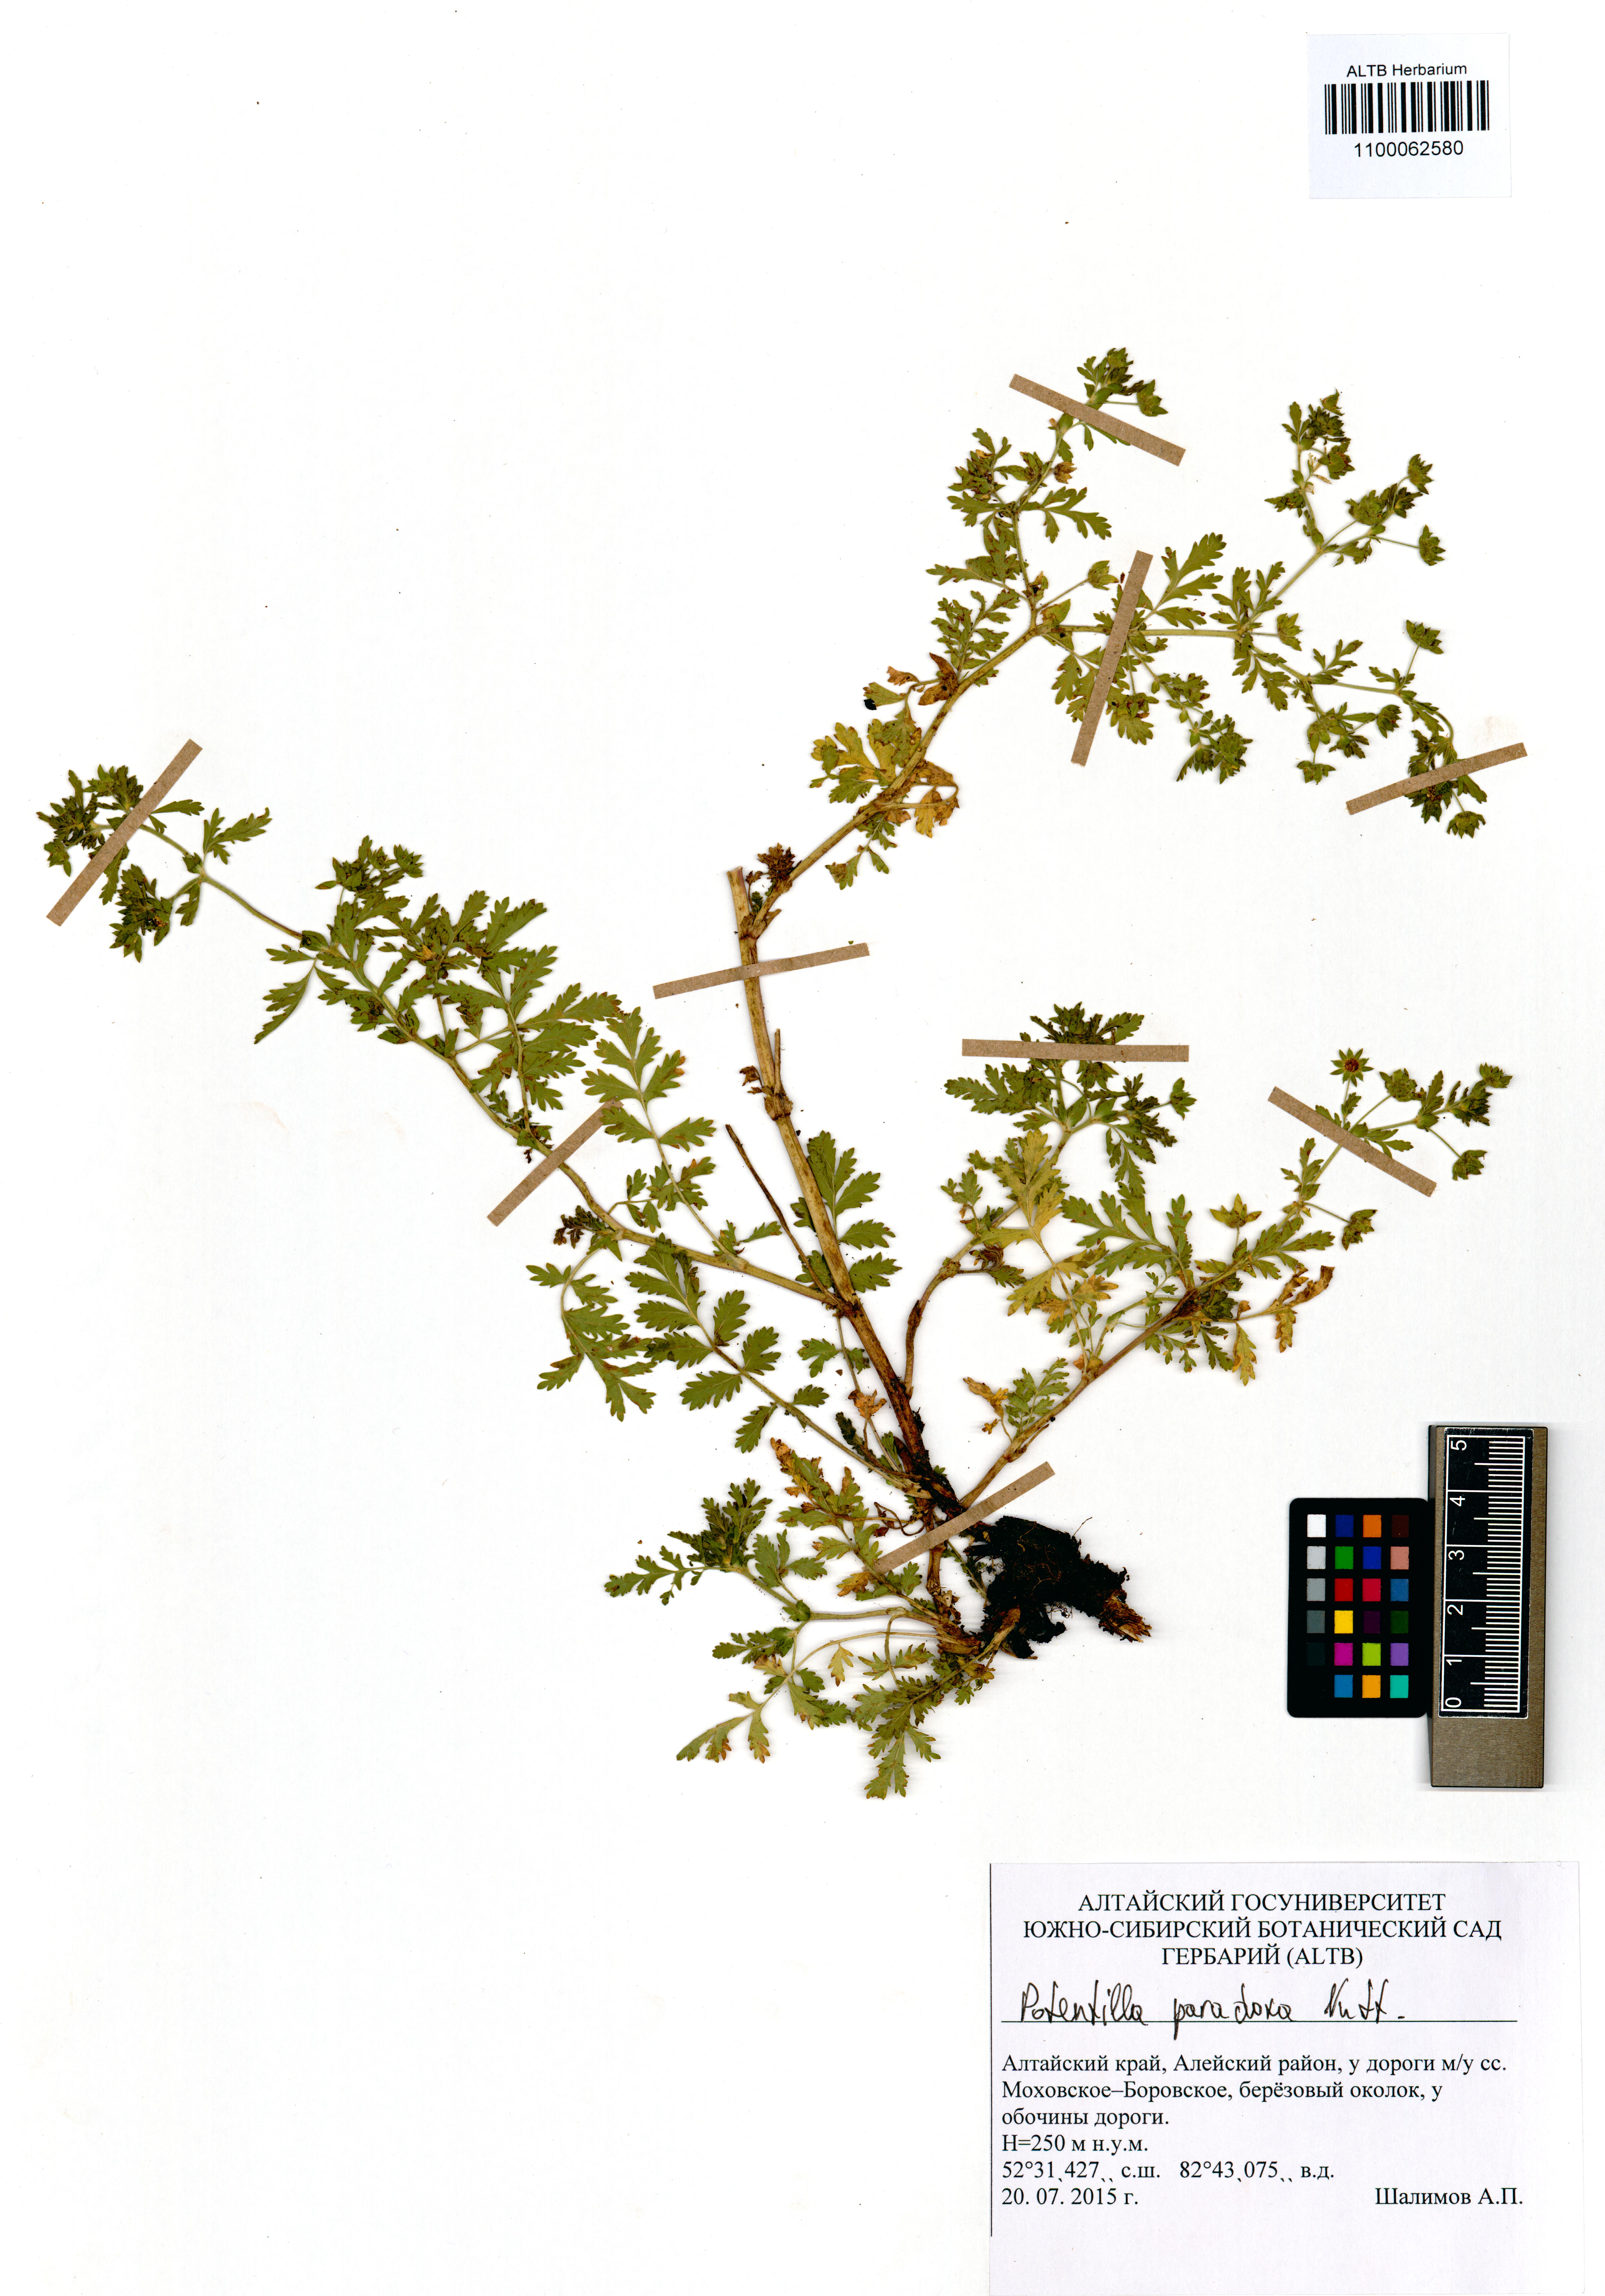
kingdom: Plantae
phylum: Tracheophyta
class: Magnoliopsida
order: Rosales
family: Rosaceae
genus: Potentilla
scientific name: Potentilla supina
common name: Prostrate cinquefoil
